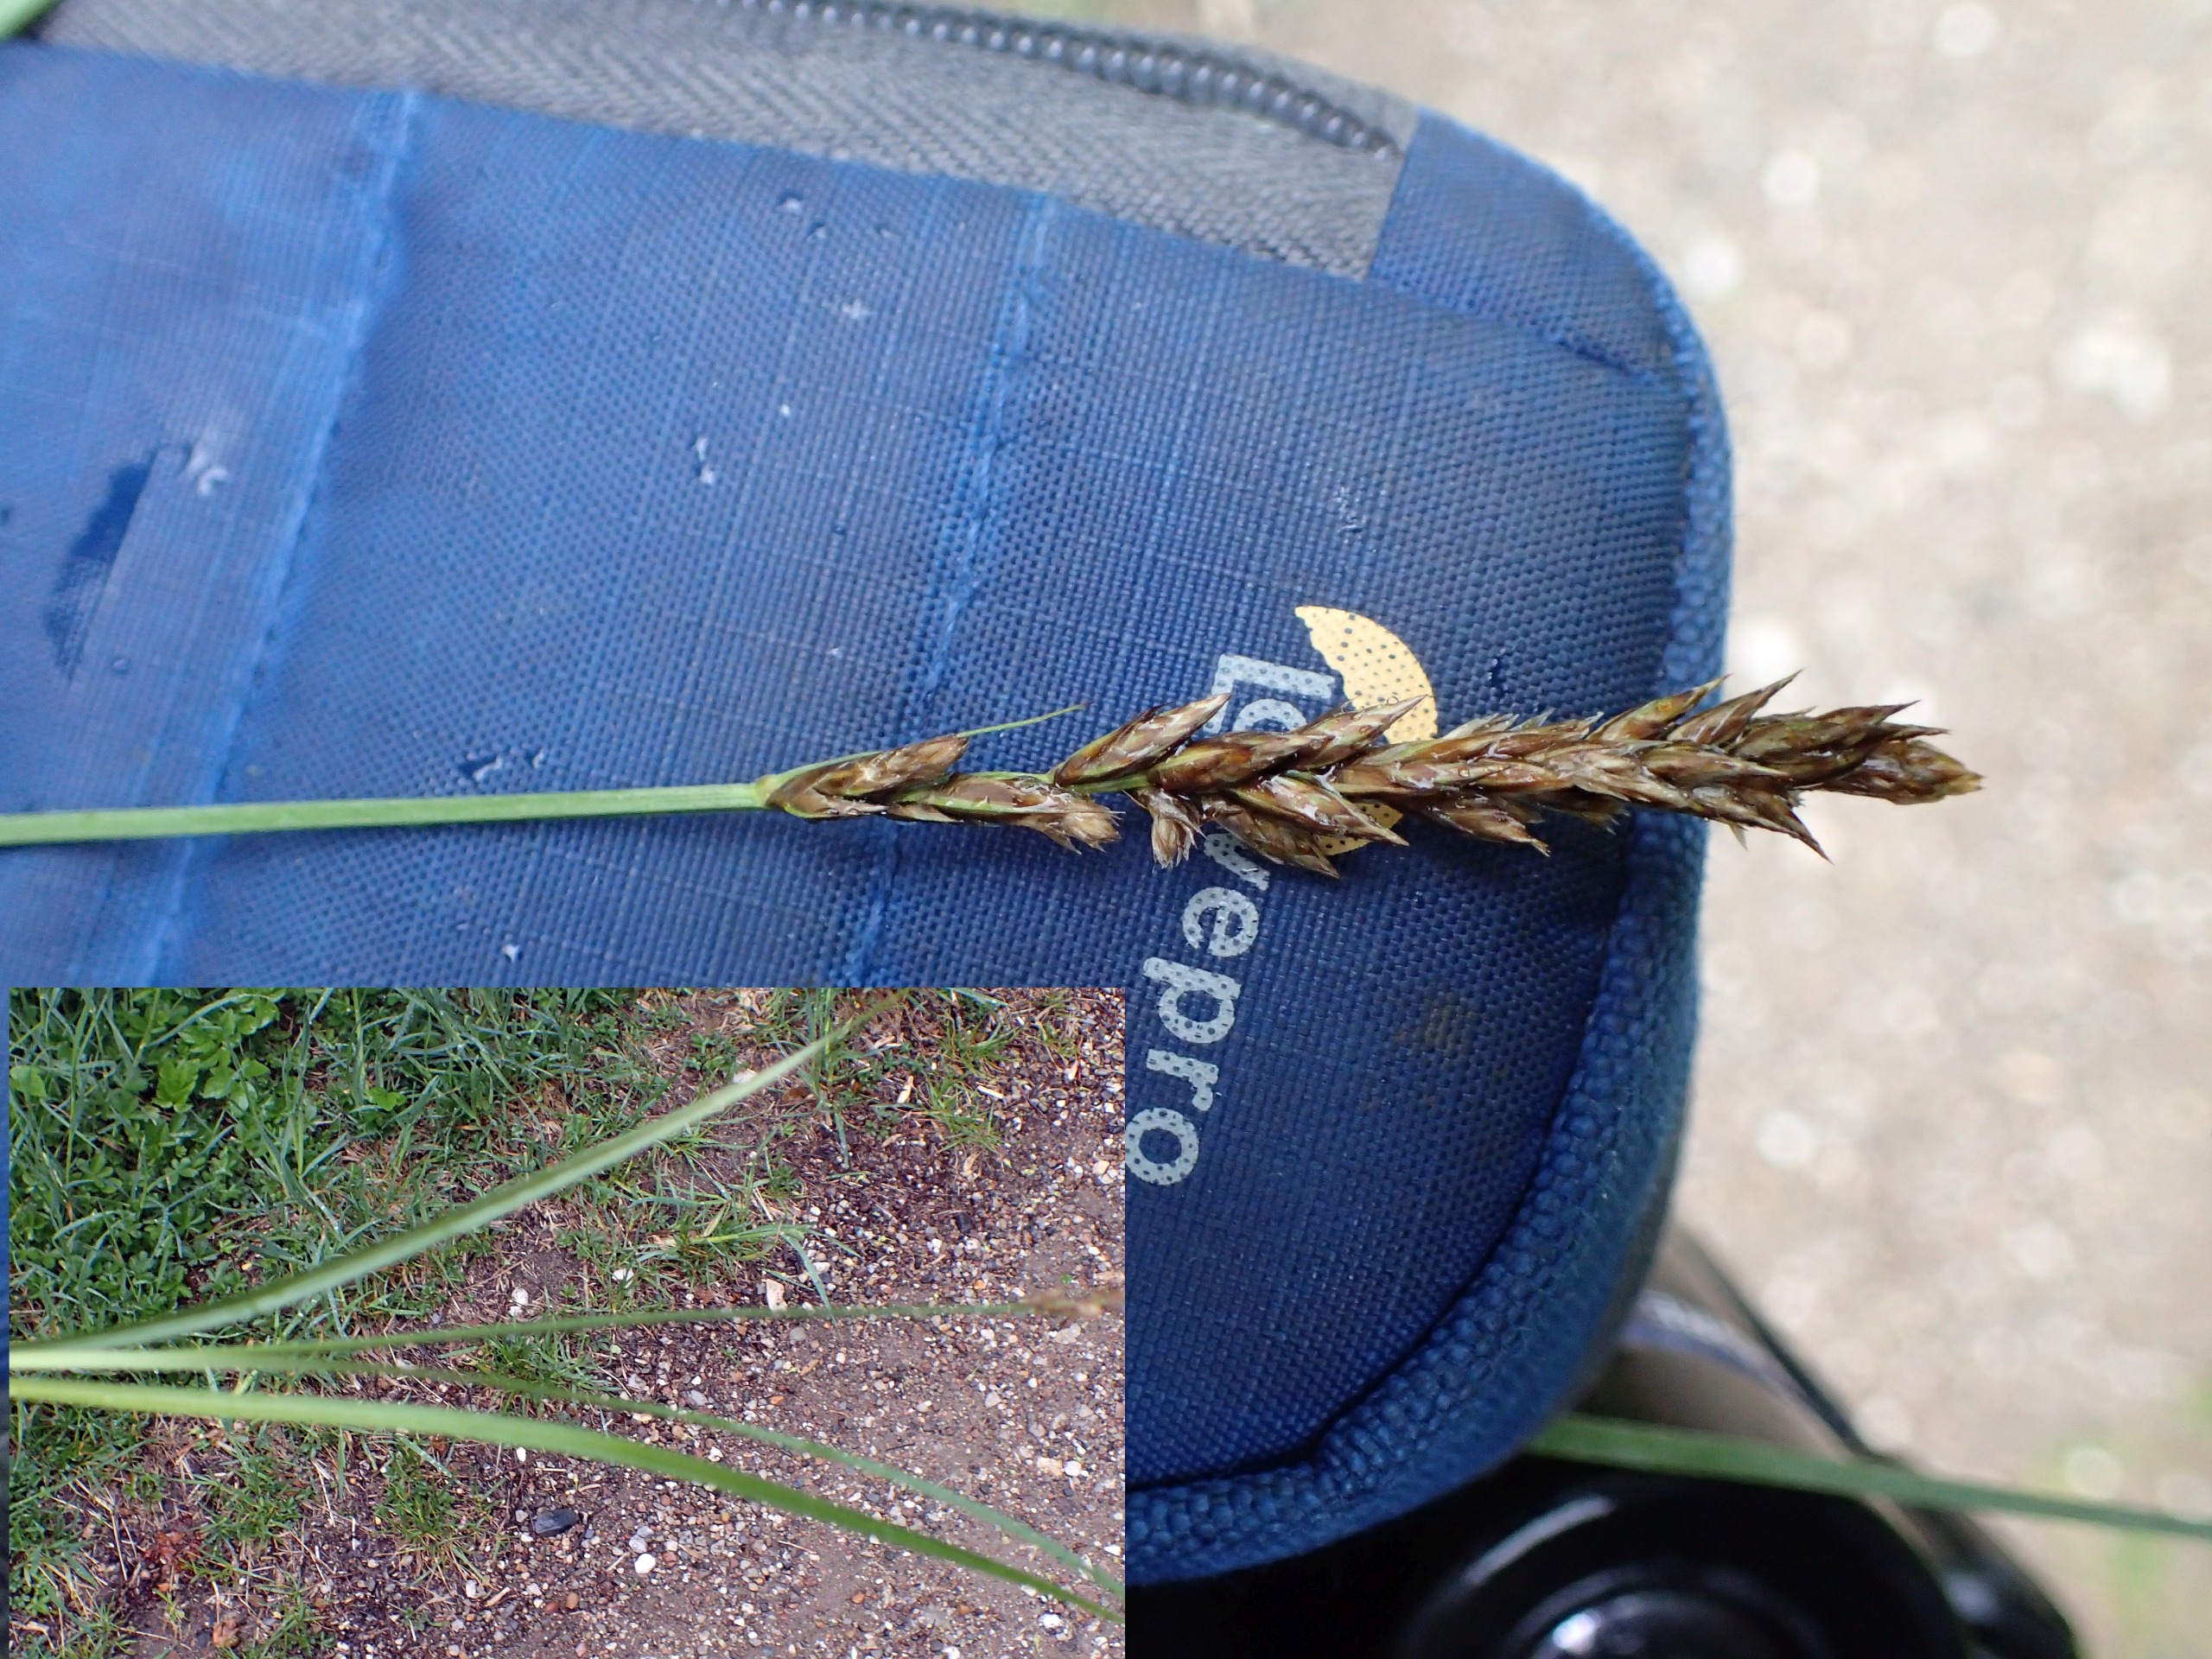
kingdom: Plantae
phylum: Tracheophyta
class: Liliopsida
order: Poales
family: Cyperaceae
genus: Carex
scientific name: Carex disticha
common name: Toradet star
